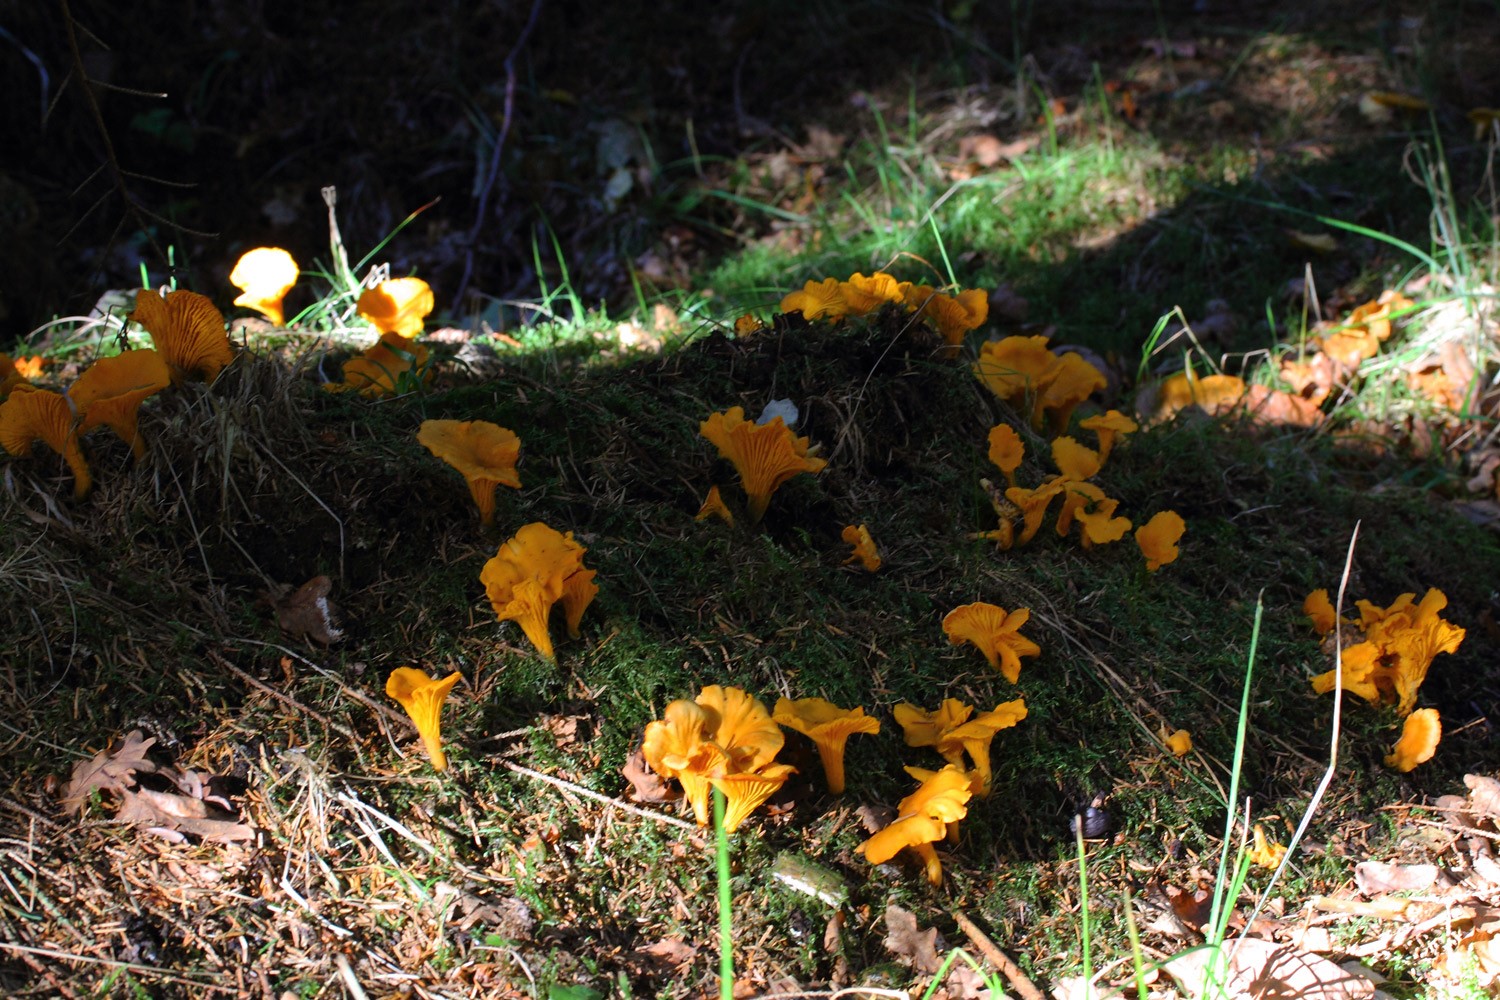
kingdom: Fungi
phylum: Basidiomycota
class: Agaricomycetes
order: Cantharellales
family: Hydnaceae
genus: Cantharellus
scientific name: Cantharellus cibarius
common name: almindelig kantarel
